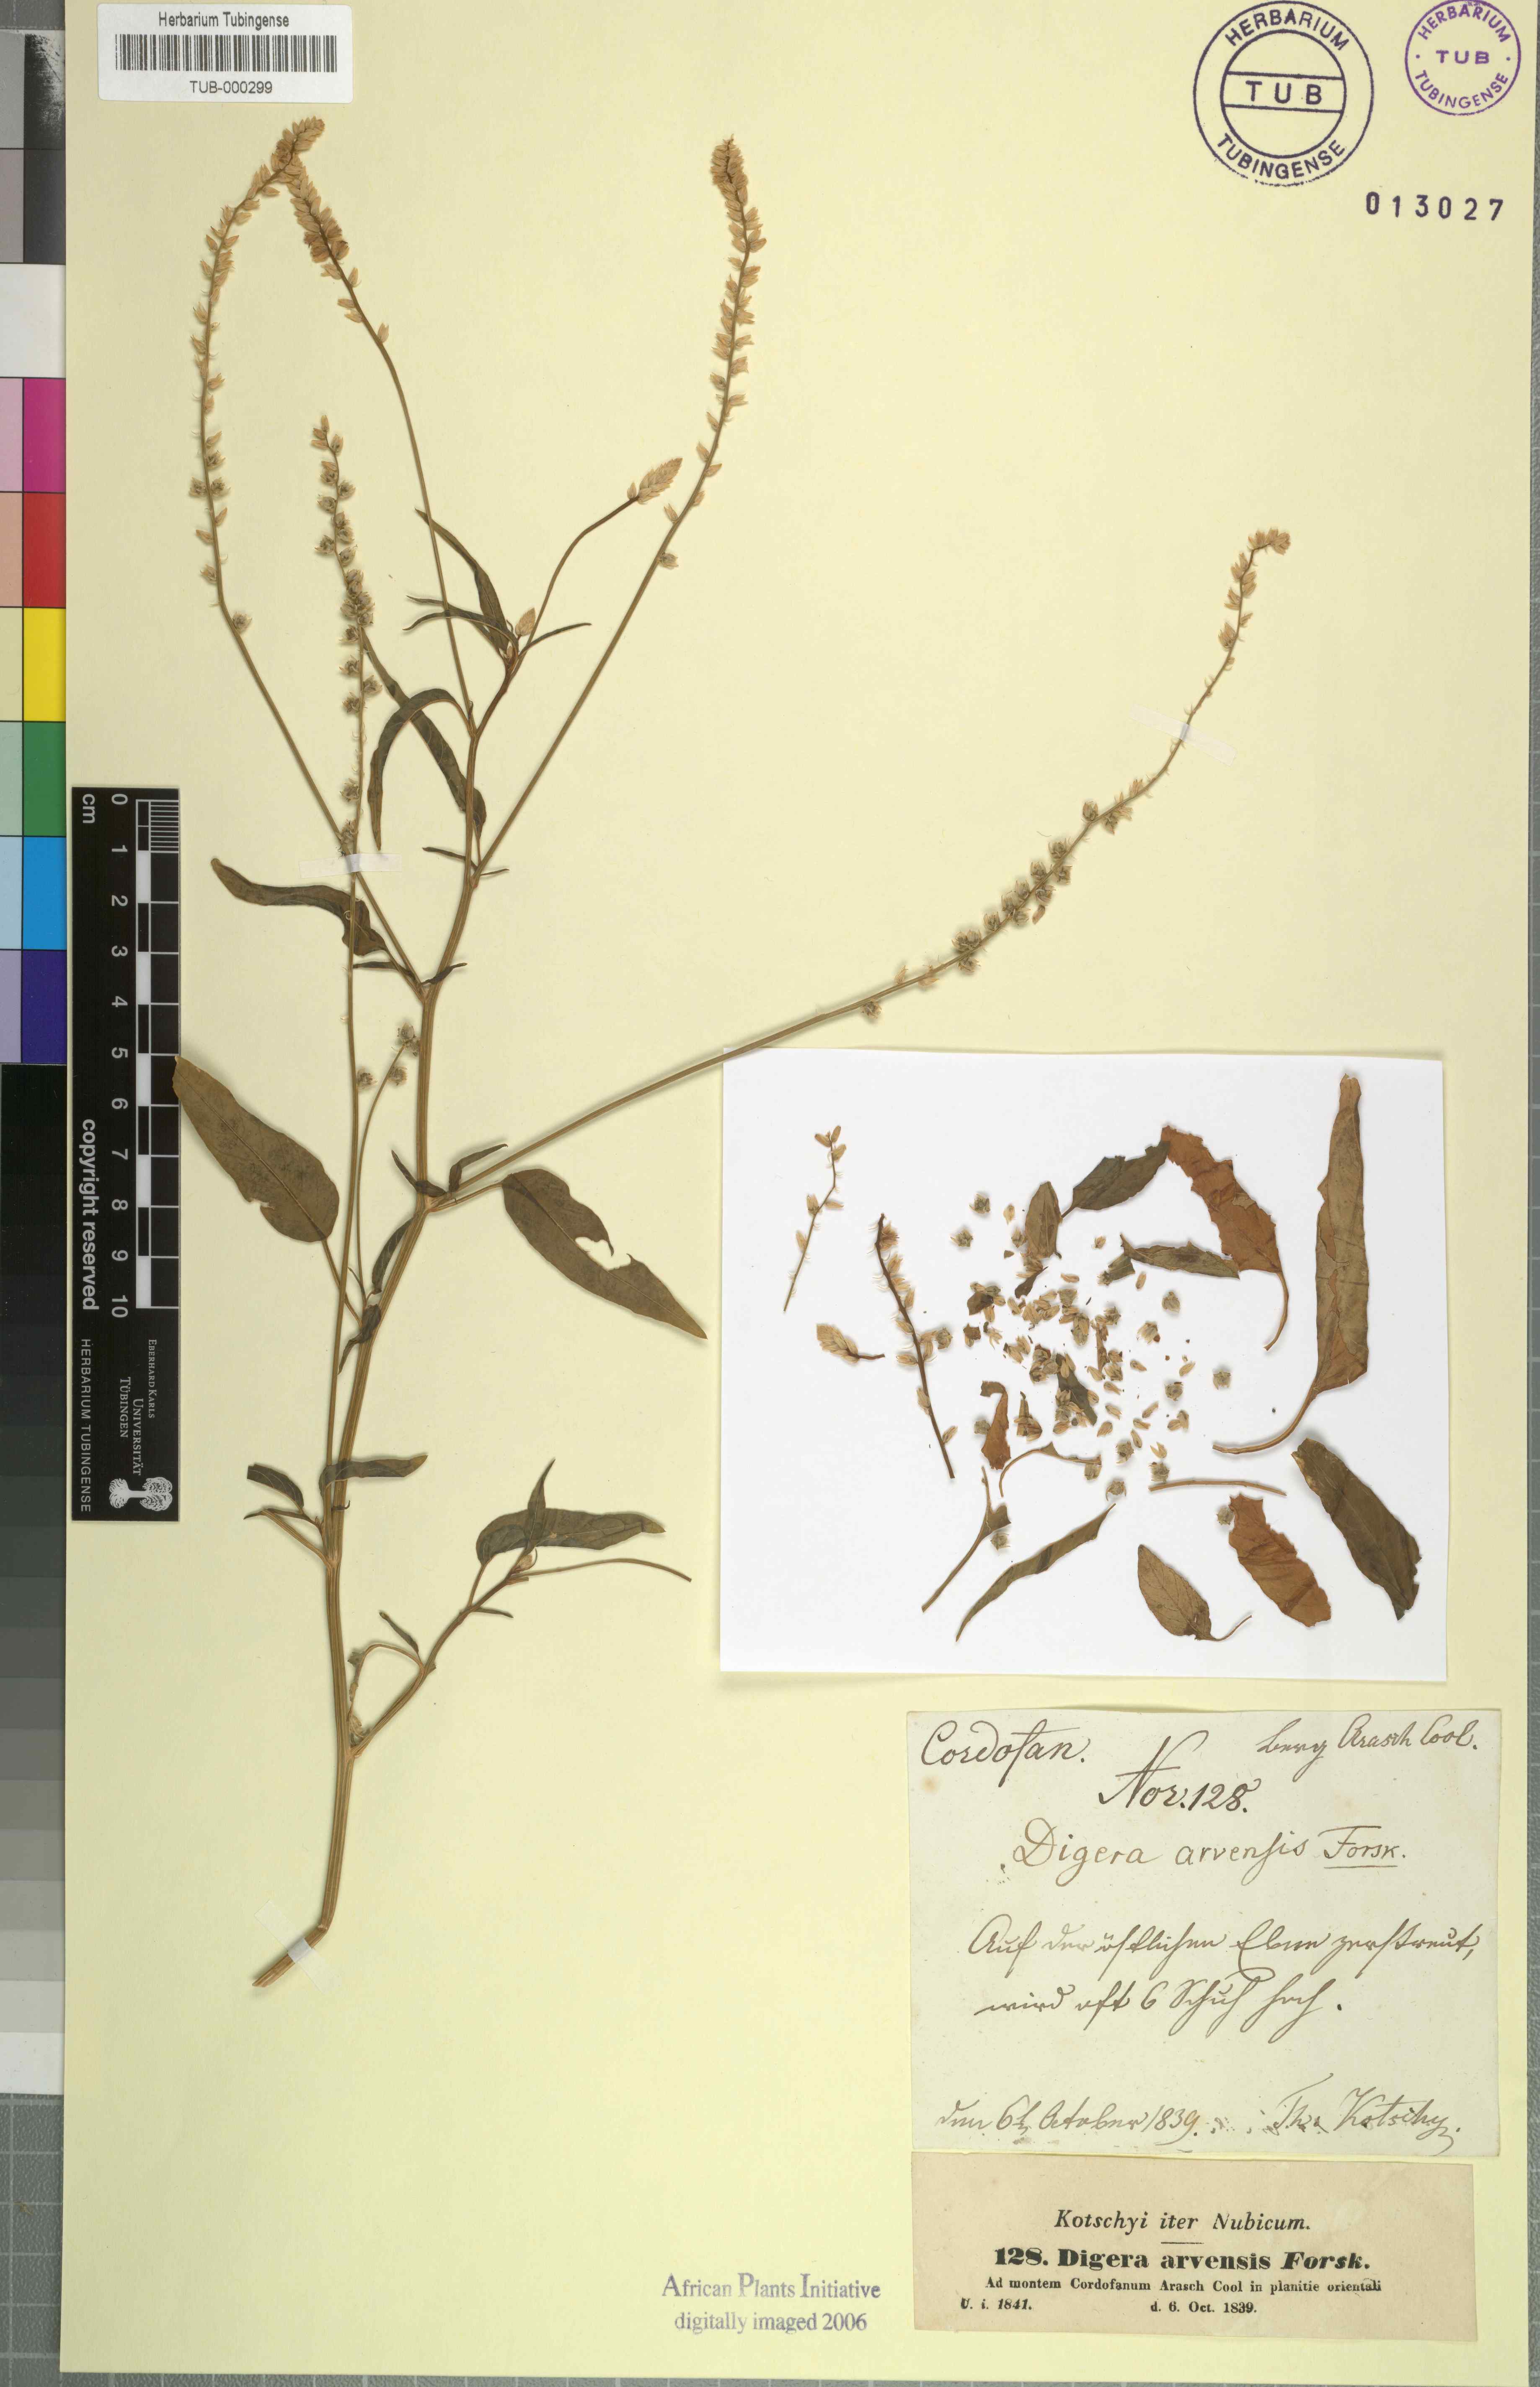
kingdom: Plantae
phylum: Tracheophyta
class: Magnoliopsida
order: Caryophyllales
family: Amaranthaceae
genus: Digera
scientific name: Digera muricata
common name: False amaranth
